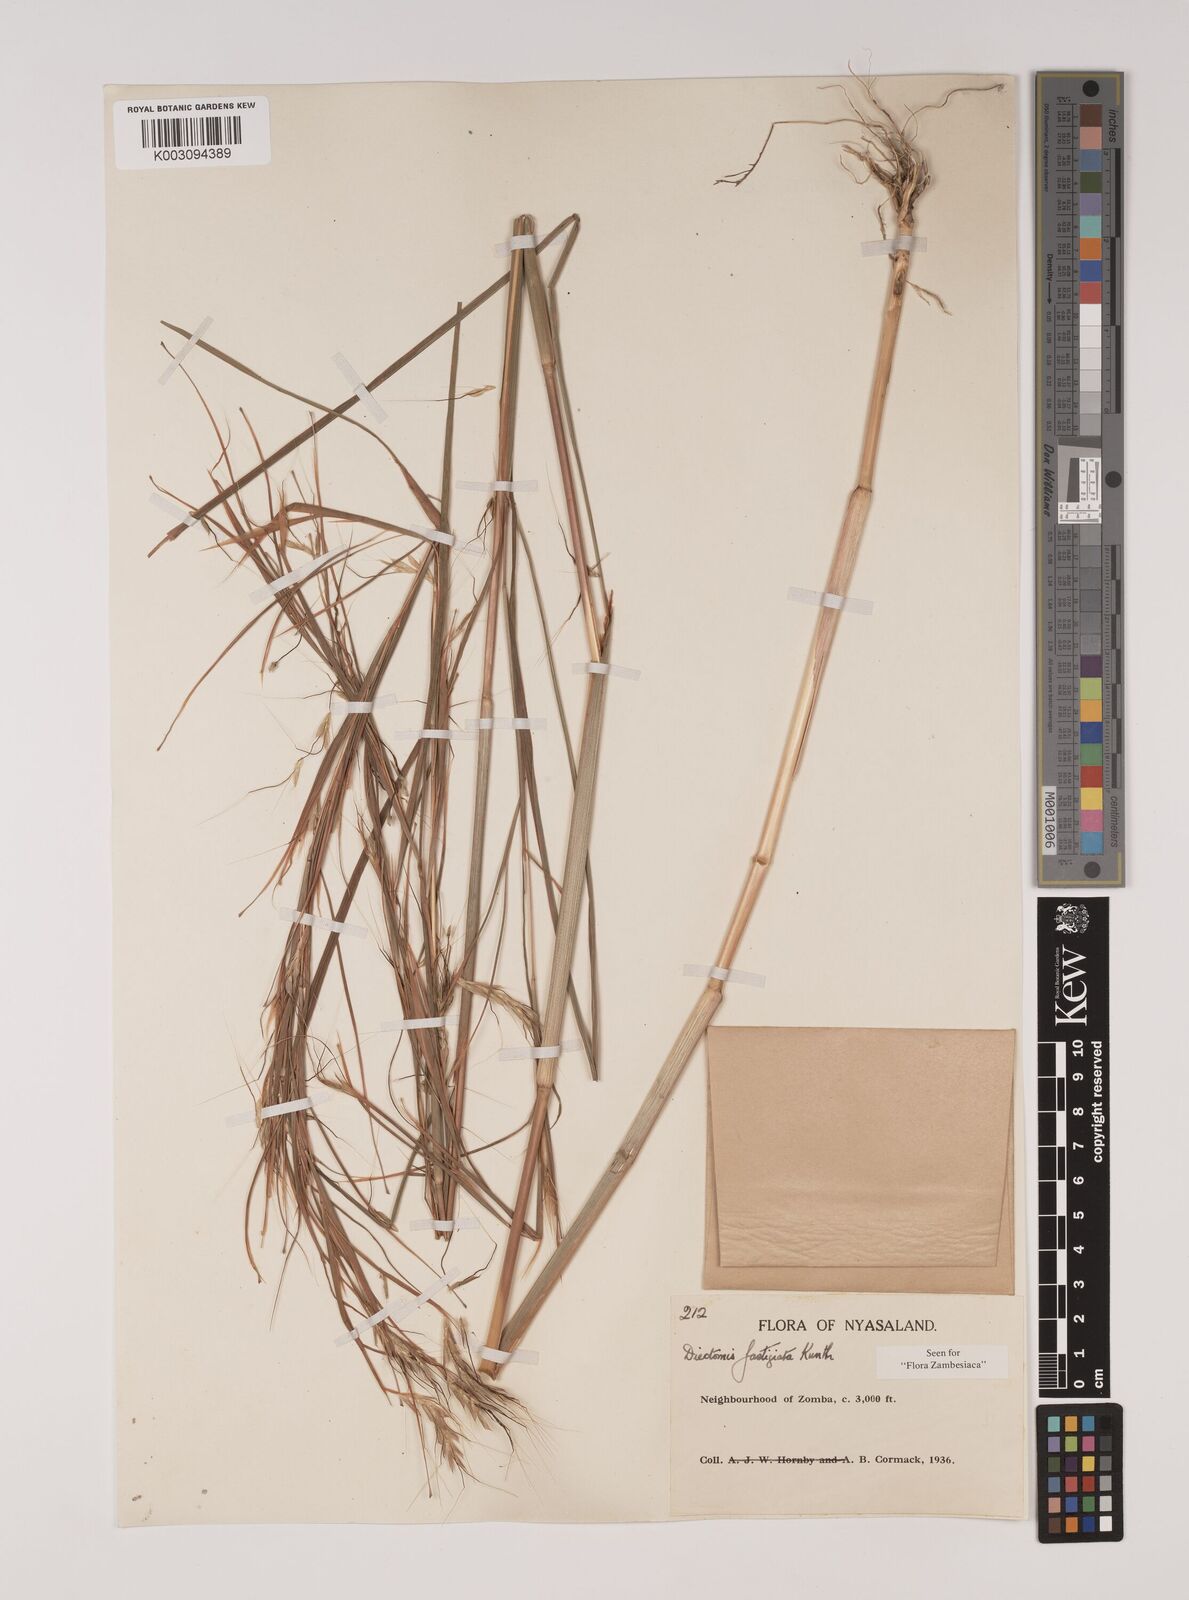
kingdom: Plantae
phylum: Tracheophyta
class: Liliopsida
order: Poales
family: Poaceae
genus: Andropogon
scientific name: Andropogon festuciformis
